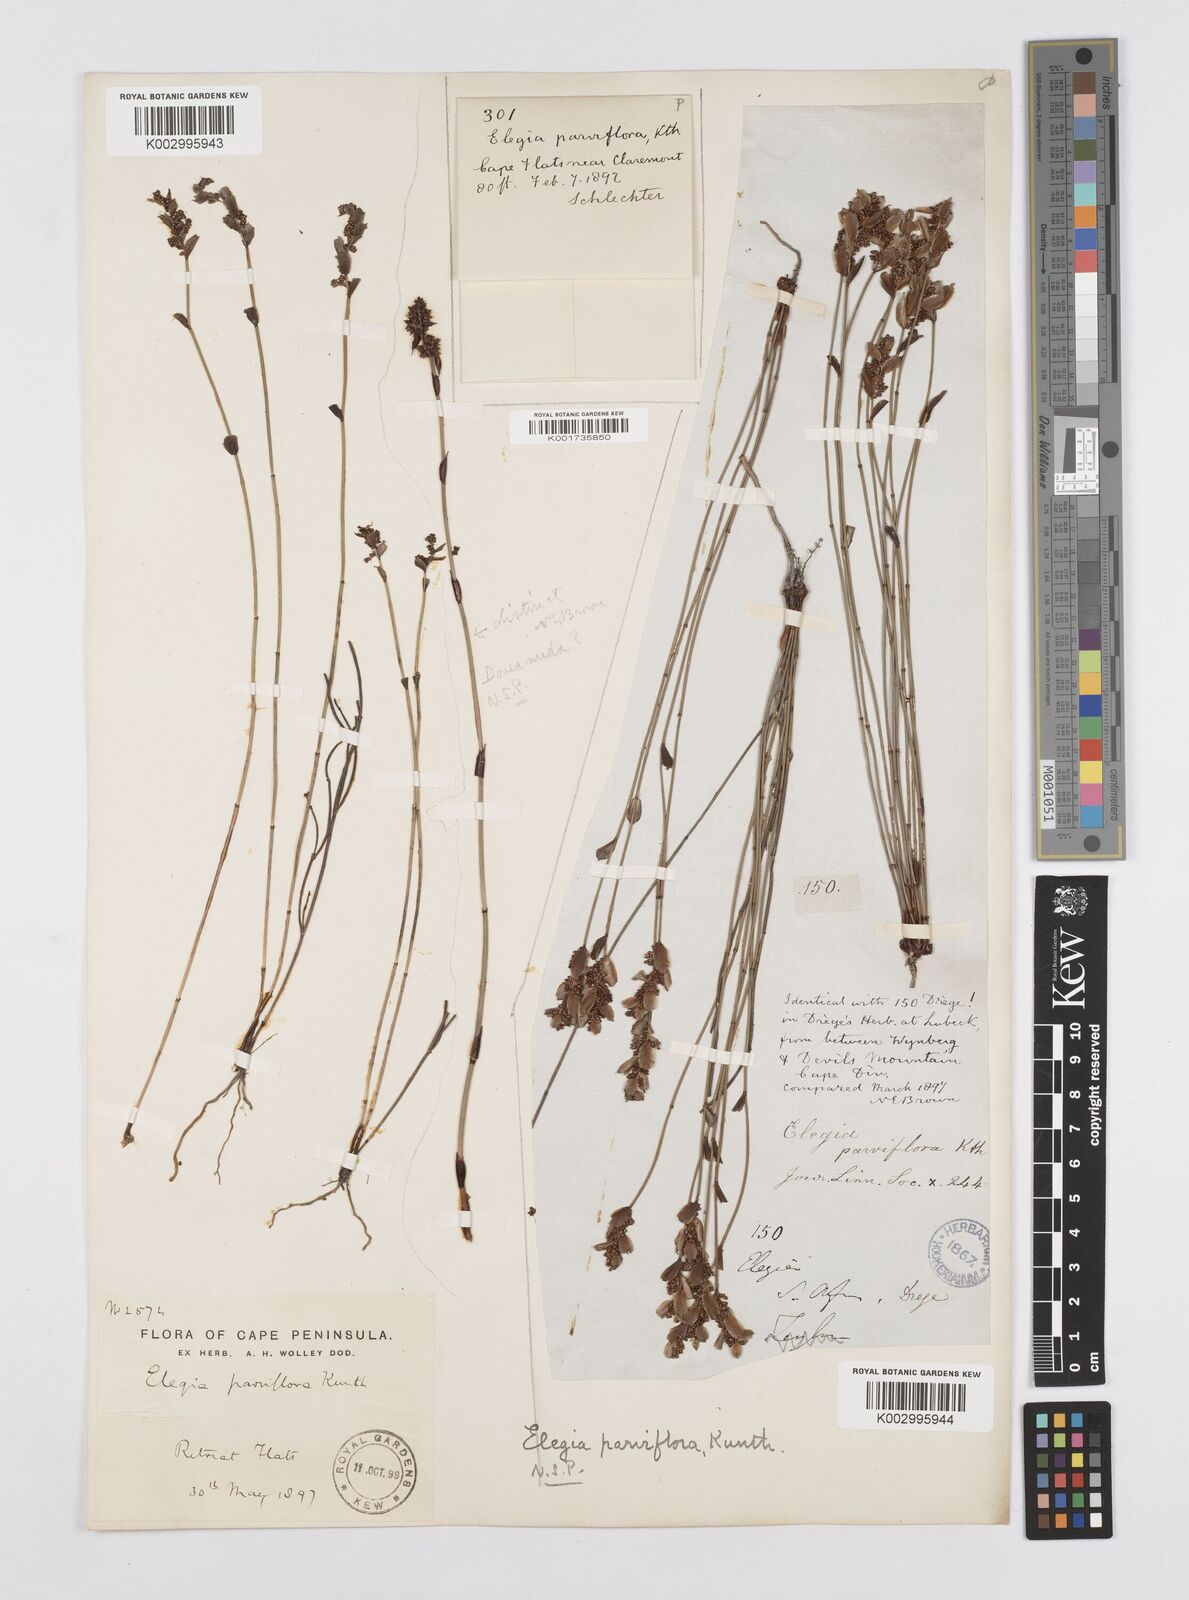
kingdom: Plantae
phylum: Tracheophyta
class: Liliopsida
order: Poales
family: Restionaceae
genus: Cannomois
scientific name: Cannomois parviflora
